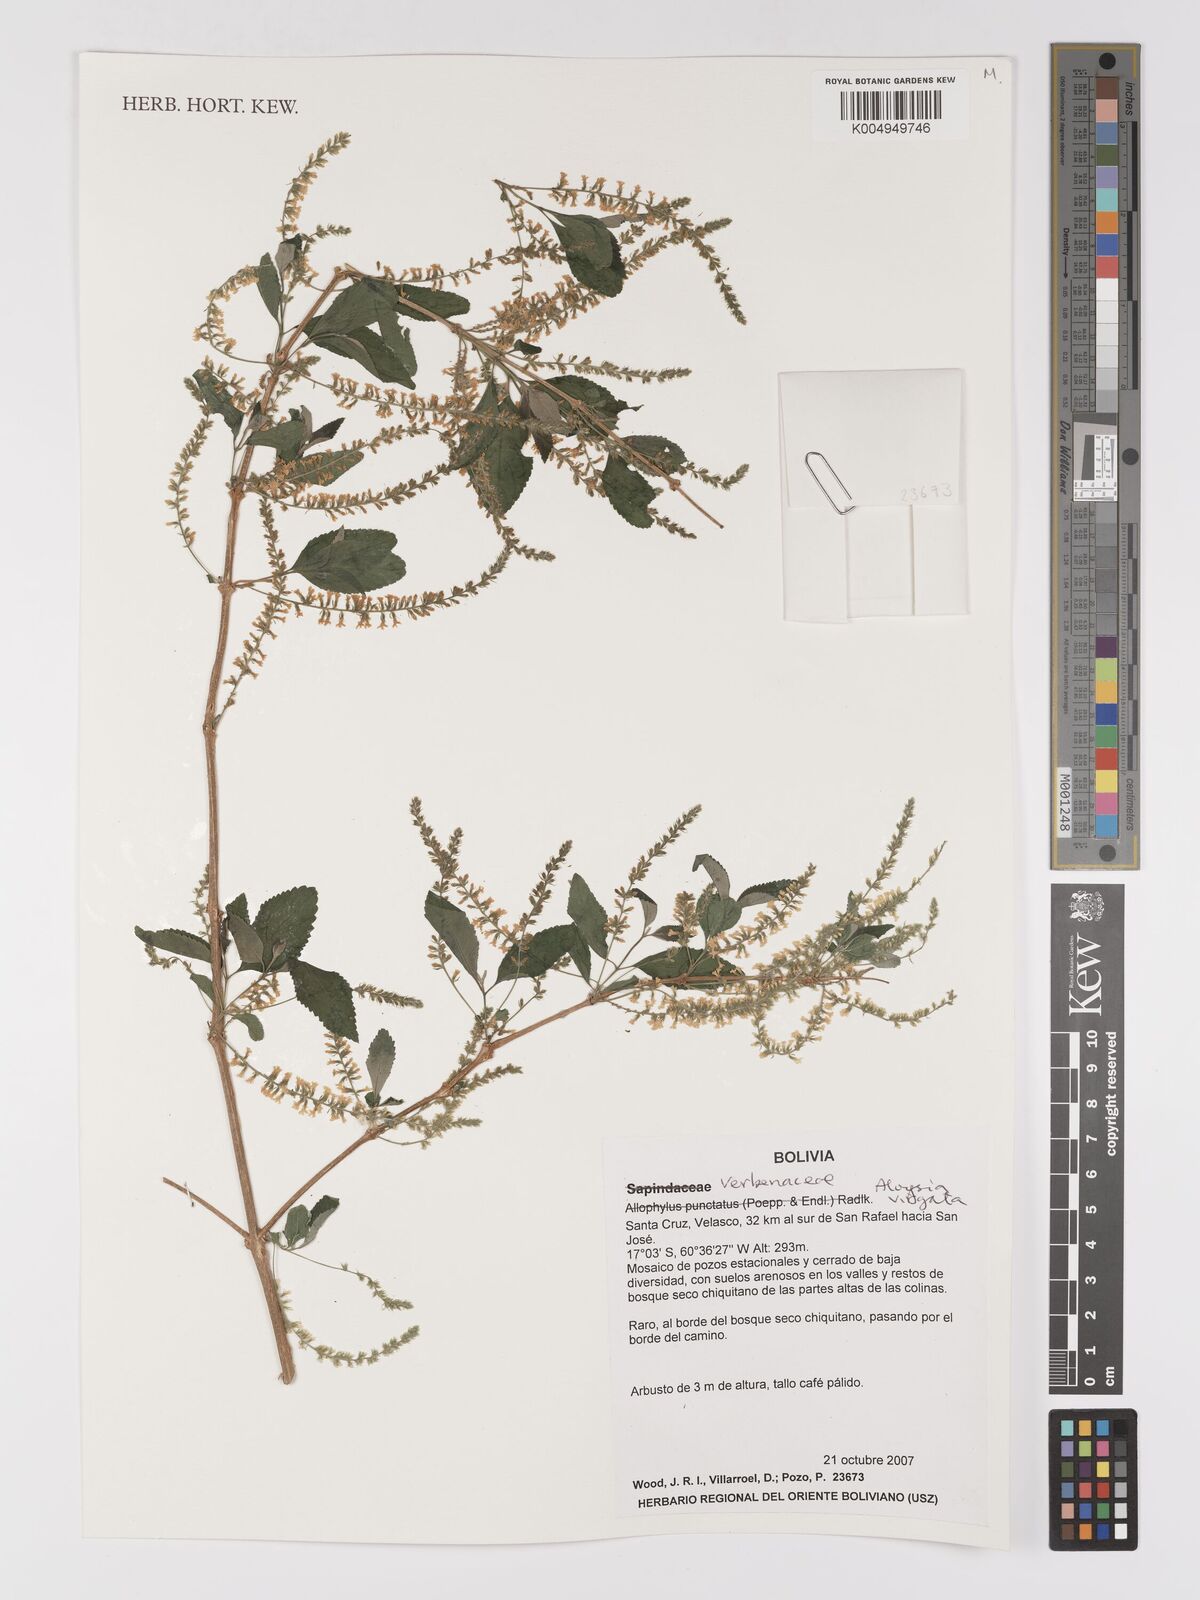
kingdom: Plantae
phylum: Tracheophyta
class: Magnoliopsida
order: Lamiales
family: Verbenaceae
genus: Aloysia
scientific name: Aloysia virgata
